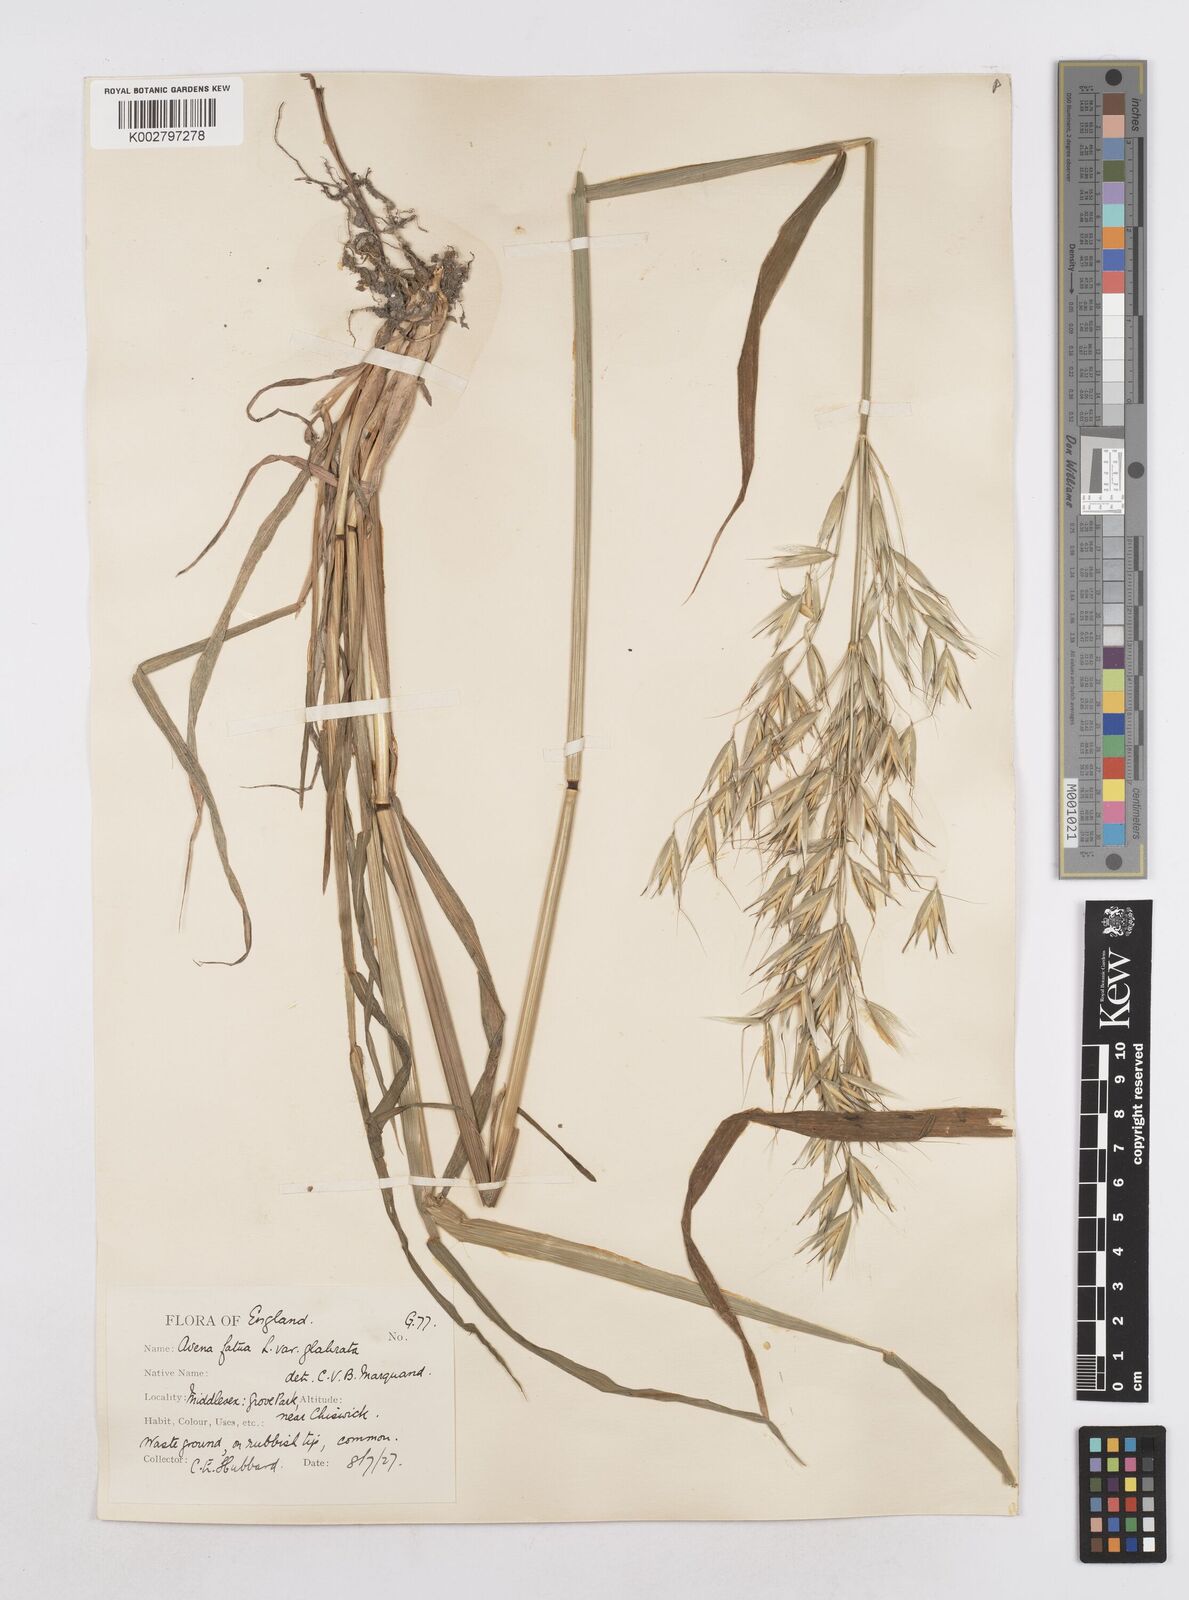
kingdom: Plantae
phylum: Tracheophyta
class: Liliopsida
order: Poales
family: Poaceae
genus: Avena
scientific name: Avena fatua
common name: Wild oat
